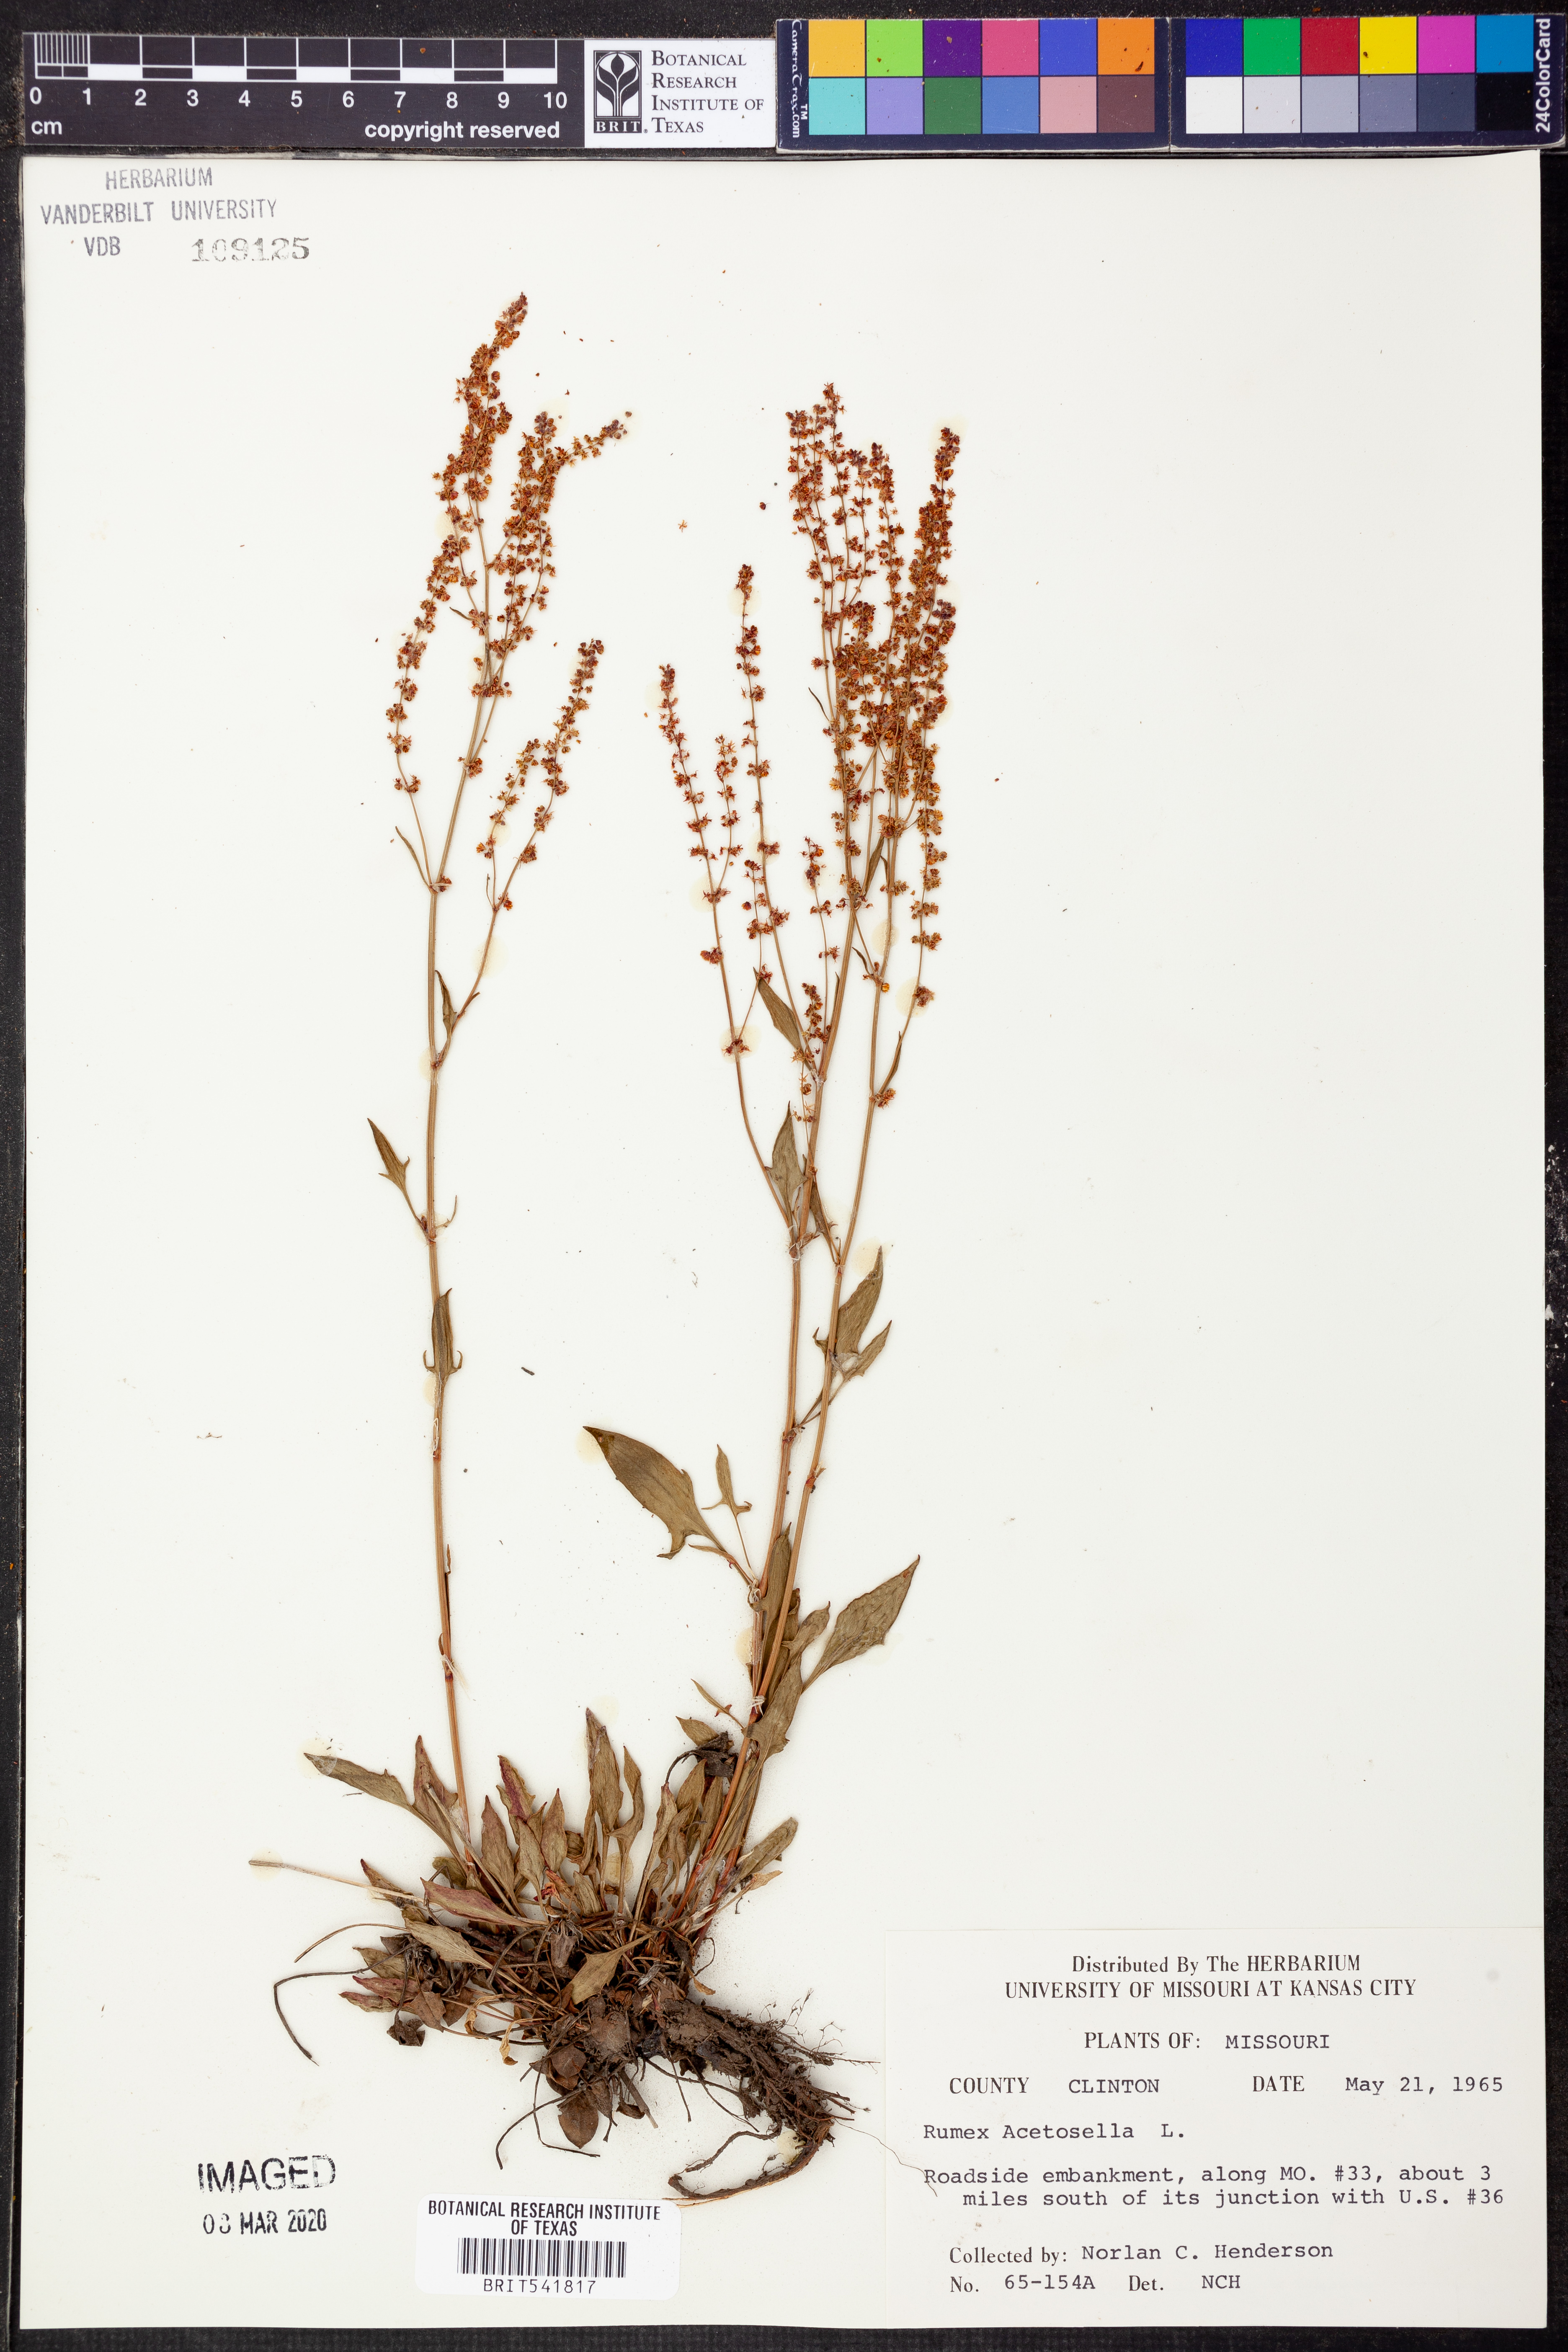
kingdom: Plantae
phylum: Tracheophyta
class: Magnoliopsida
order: Caryophyllales
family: Polygonaceae
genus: Rumex
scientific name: Rumex acetosella
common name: Common sheep sorrel
